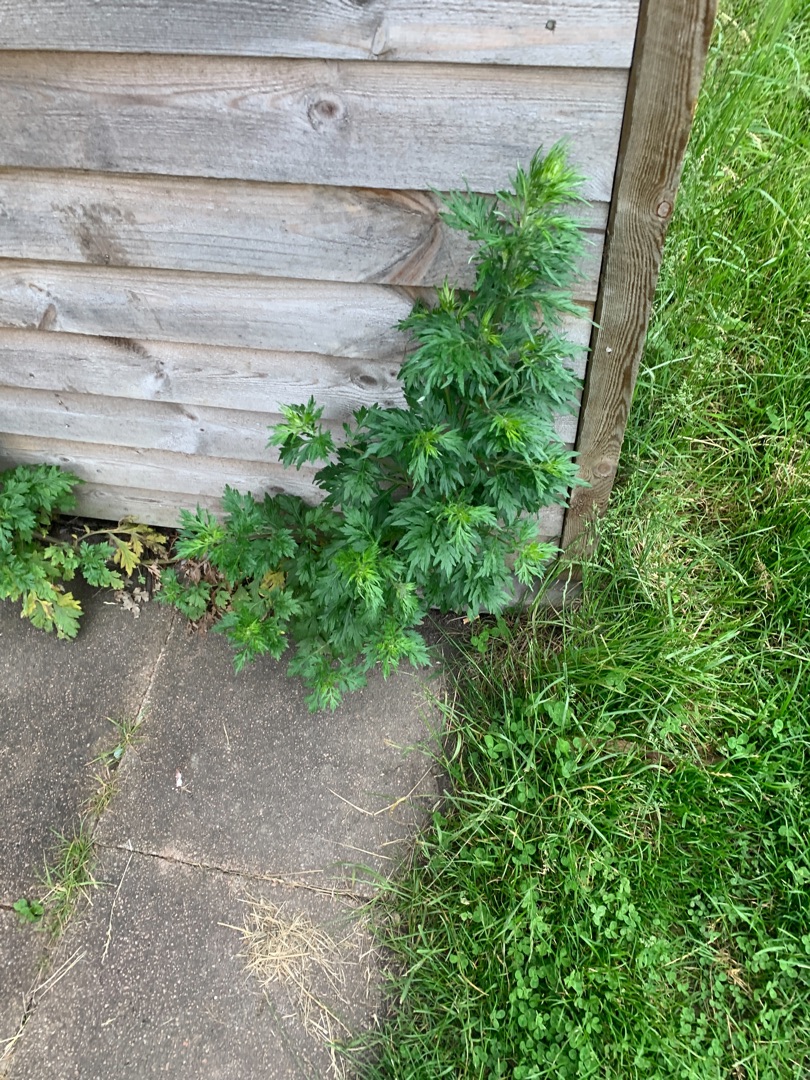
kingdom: Plantae
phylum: Tracheophyta
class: Magnoliopsida
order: Asterales
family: Asteraceae
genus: Artemisia
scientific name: Artemisia vulgaris
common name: Grå-bynke
